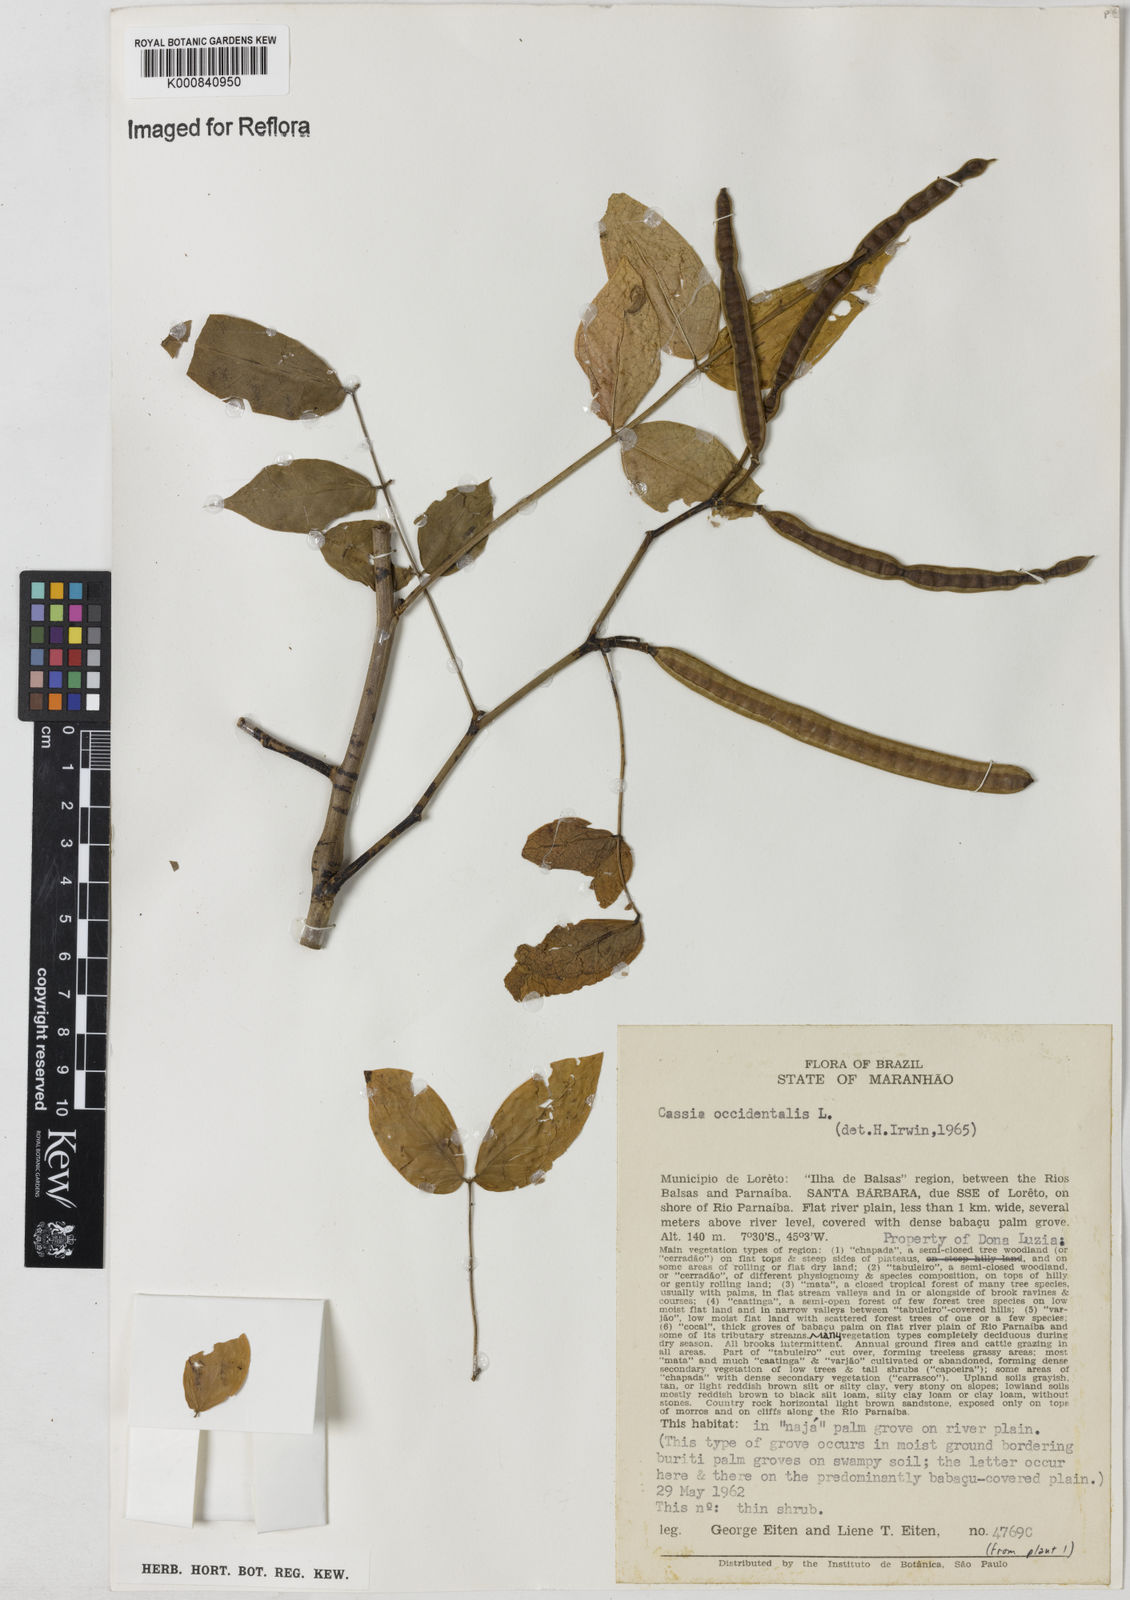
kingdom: Plantae
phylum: Tracheophyta
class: Magnoliopsida
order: Fabales
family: Fabaceae
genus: Senna
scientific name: Senna occidentalis
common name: Septicweed
